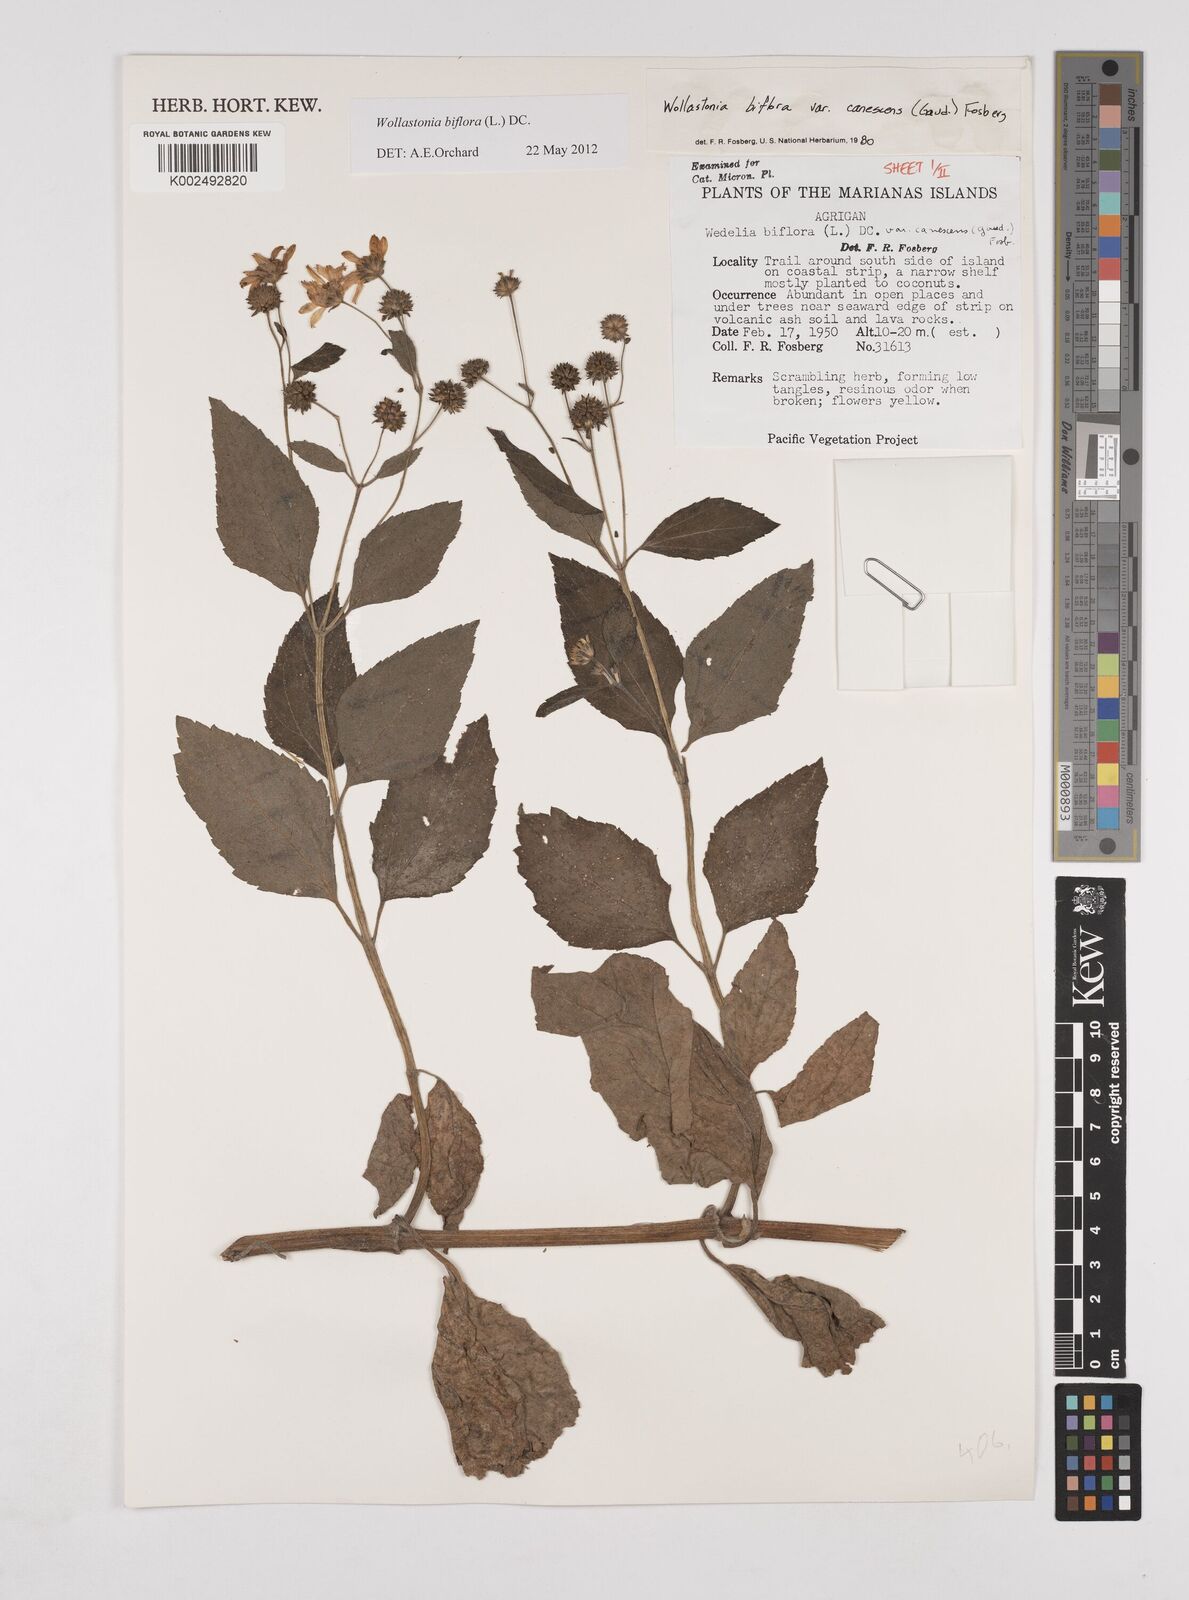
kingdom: Plantae
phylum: Tracheophyta
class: Magnoliopsida
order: Asterales
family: Asteraceae
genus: Wollastonia
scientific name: Wollastonia biflora
